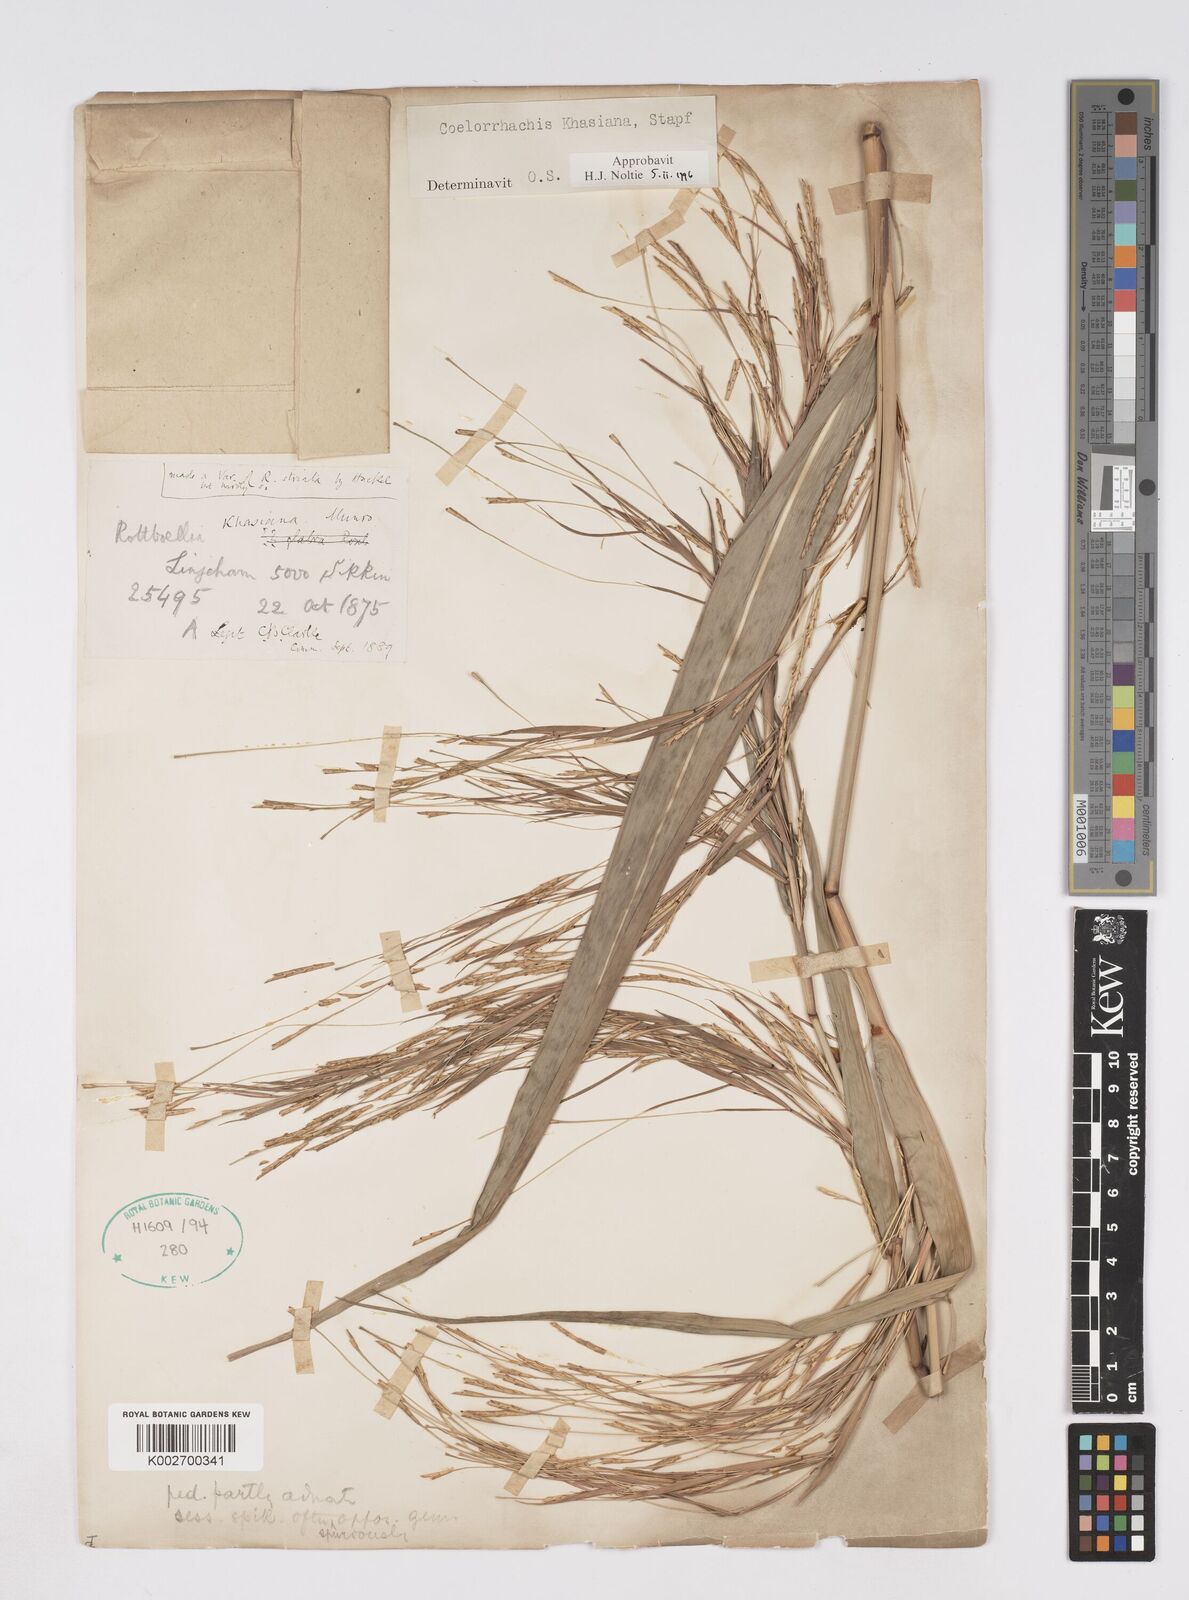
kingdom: Plantae
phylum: Tracheophyta
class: Liliopsida
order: Poales
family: Poaceae
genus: Rottboellia
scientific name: Rottboellia striata
